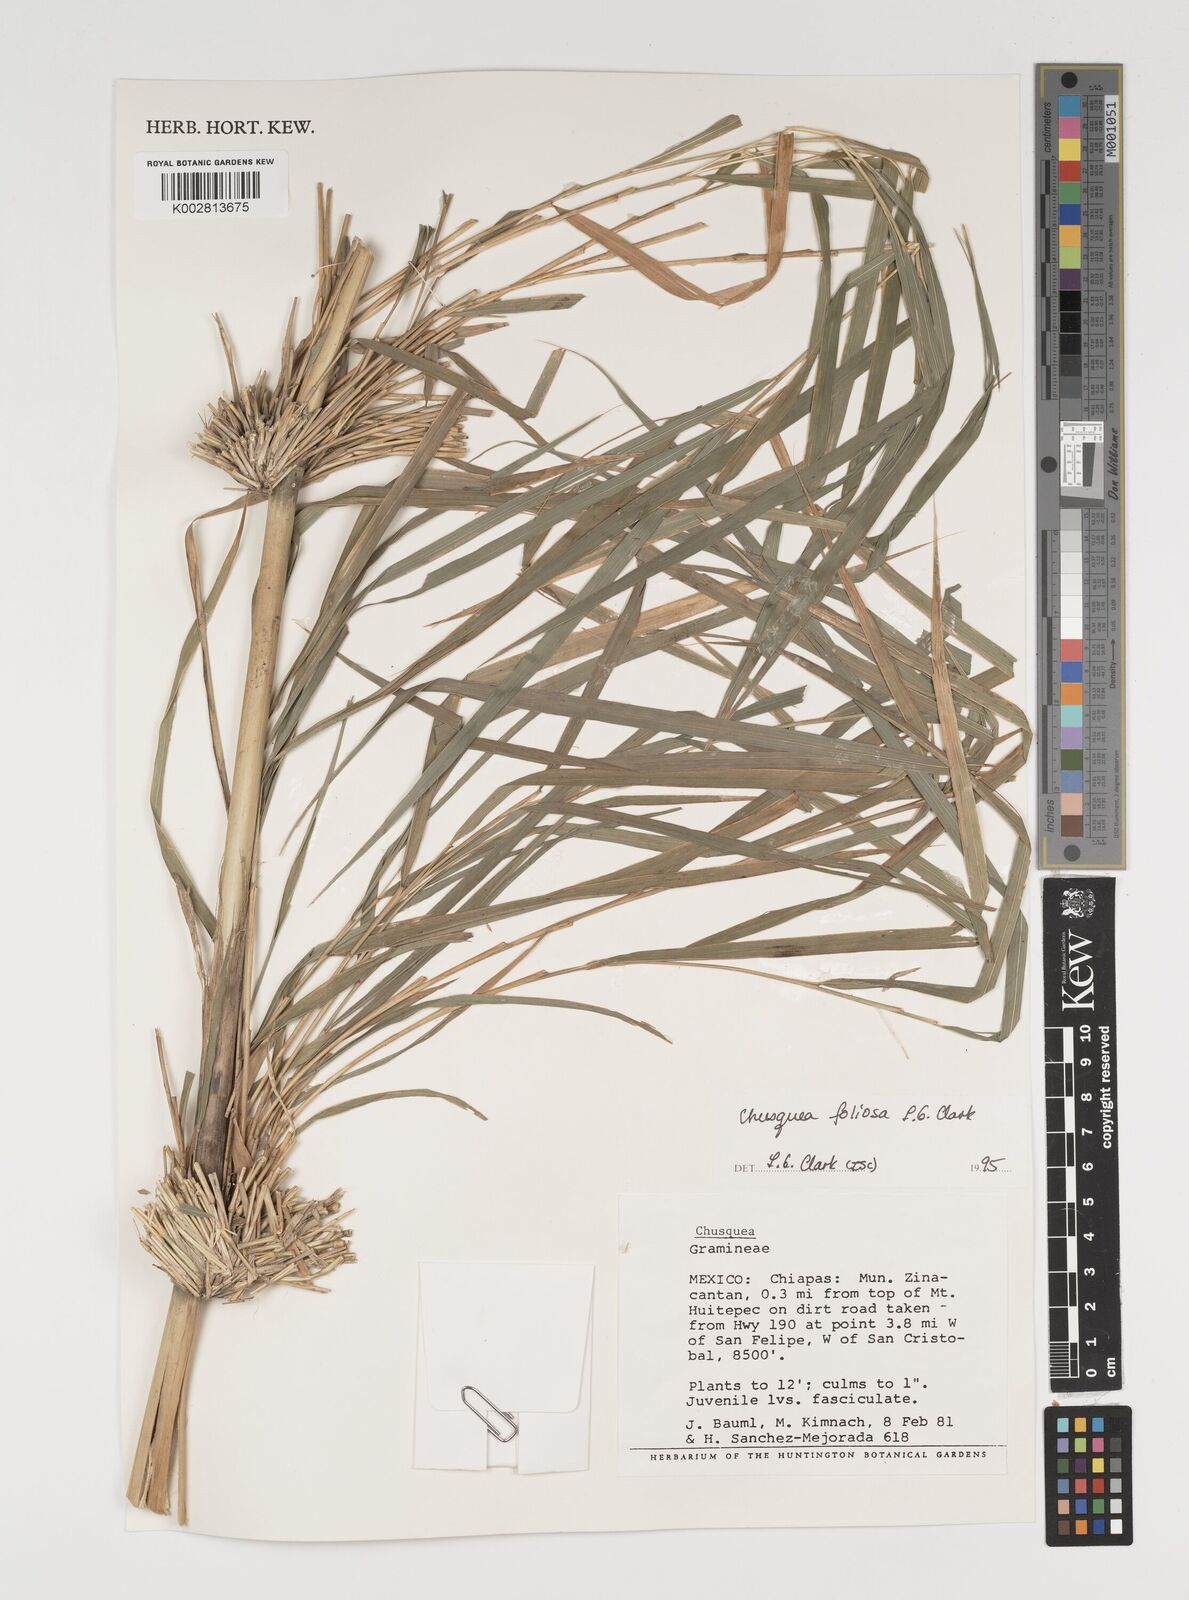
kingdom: Plantae
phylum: Tracheophyta
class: Liliopsida
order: Poales
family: Poaceae
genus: Chusquea
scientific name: Chusquea foliosa
